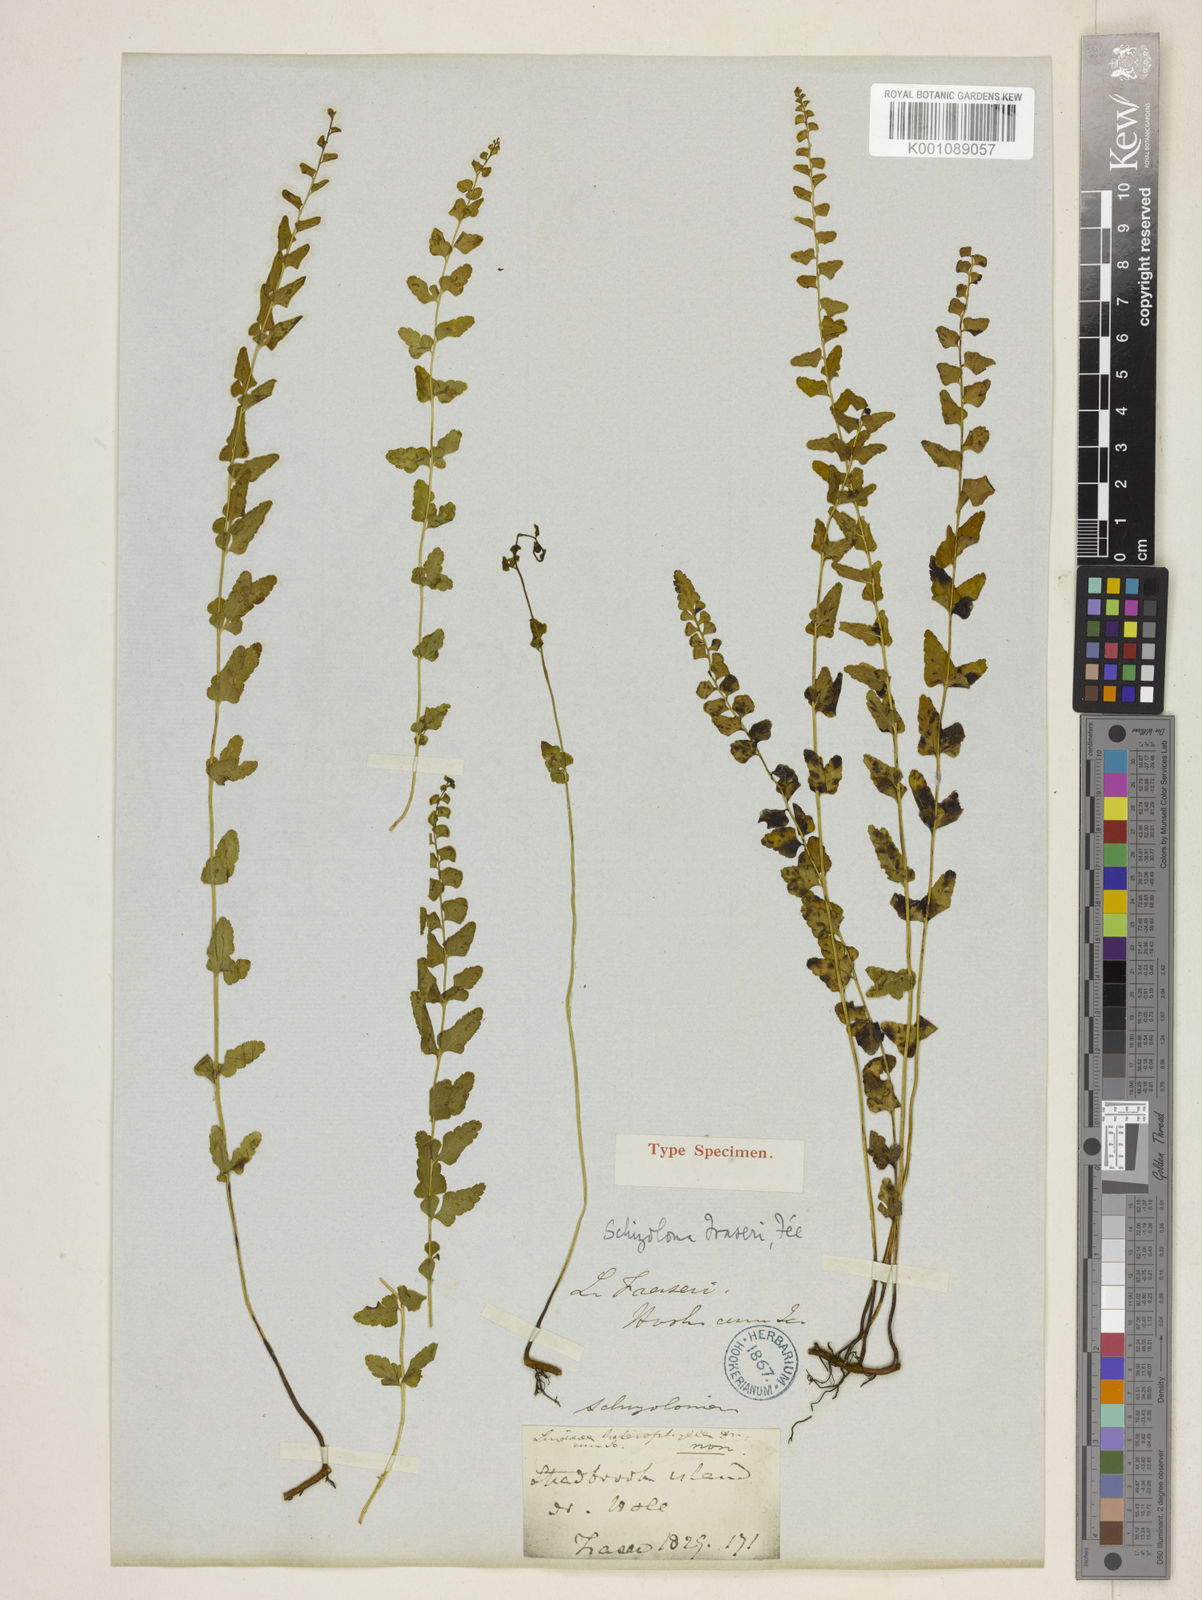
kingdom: Plantae
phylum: Tracheophyta
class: Polypodiopsida
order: Polypodiales
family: Lindsaeaceae
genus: Lindsaea
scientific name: Lindsaea fraseri
